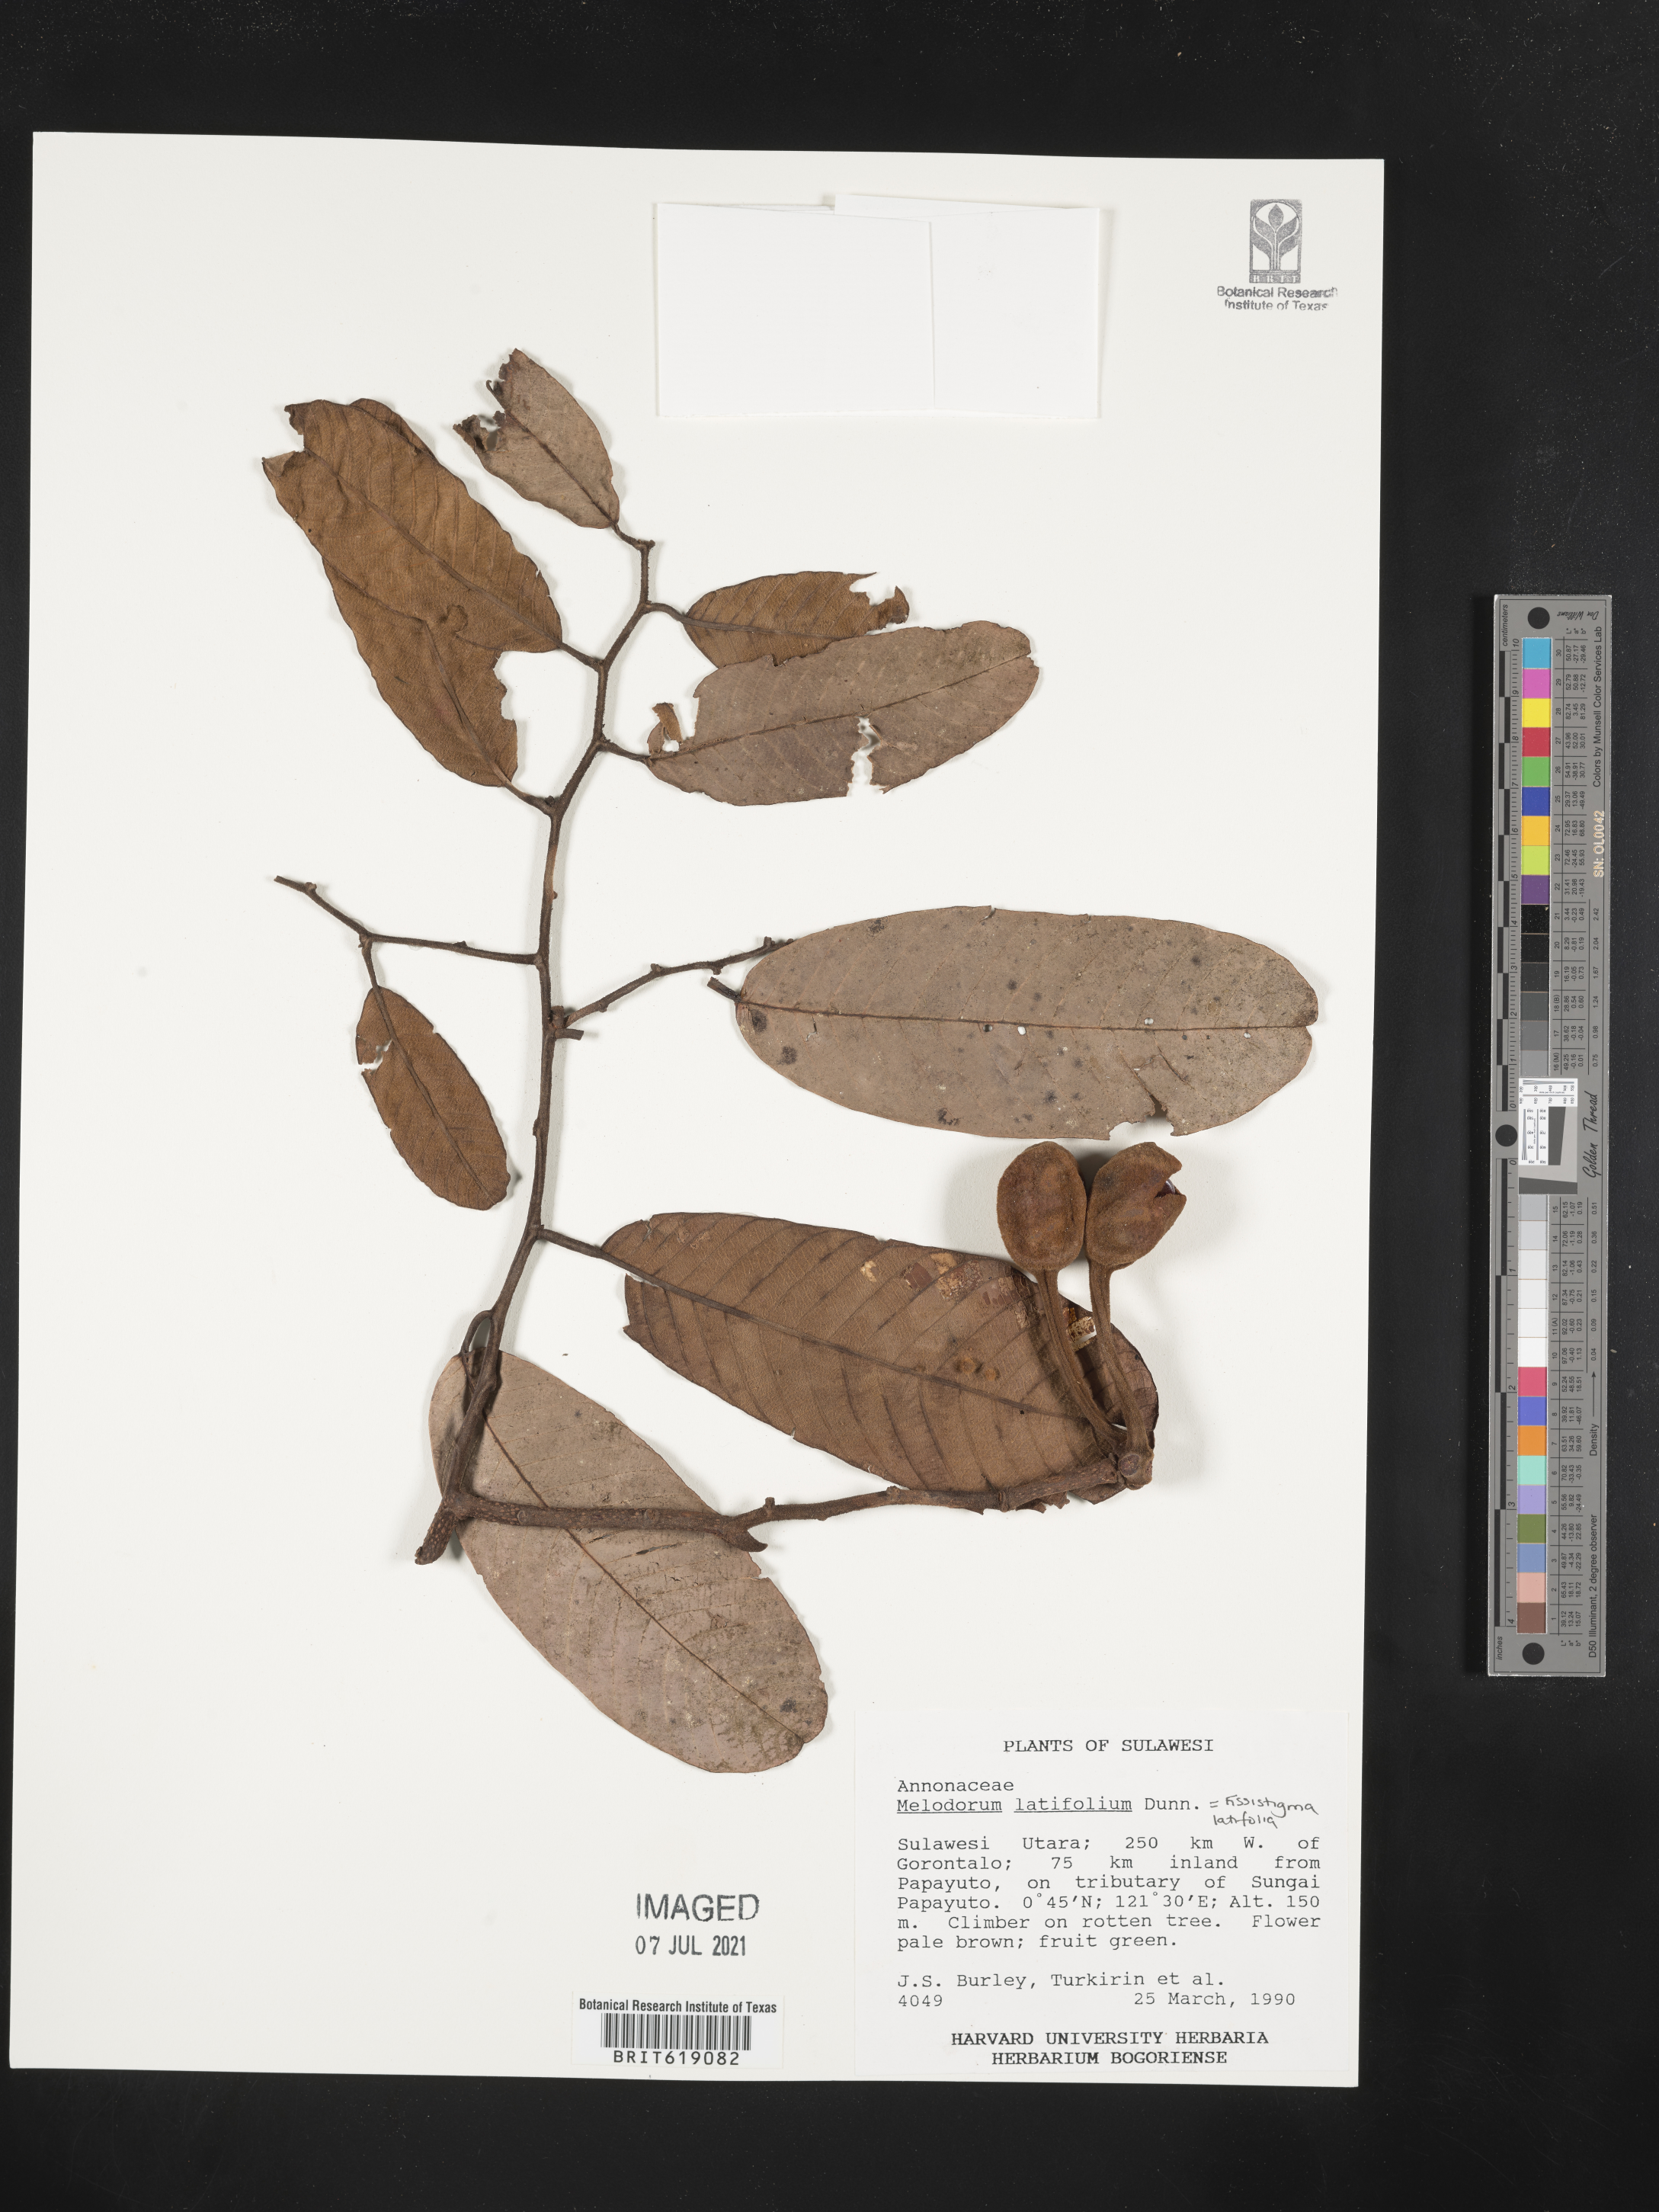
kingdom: Plantae
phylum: Tracheophyta
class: Magnoliopsida
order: Magnoliales
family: Annonaceae
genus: Fissistigma
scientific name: Fissistigma latifolium
